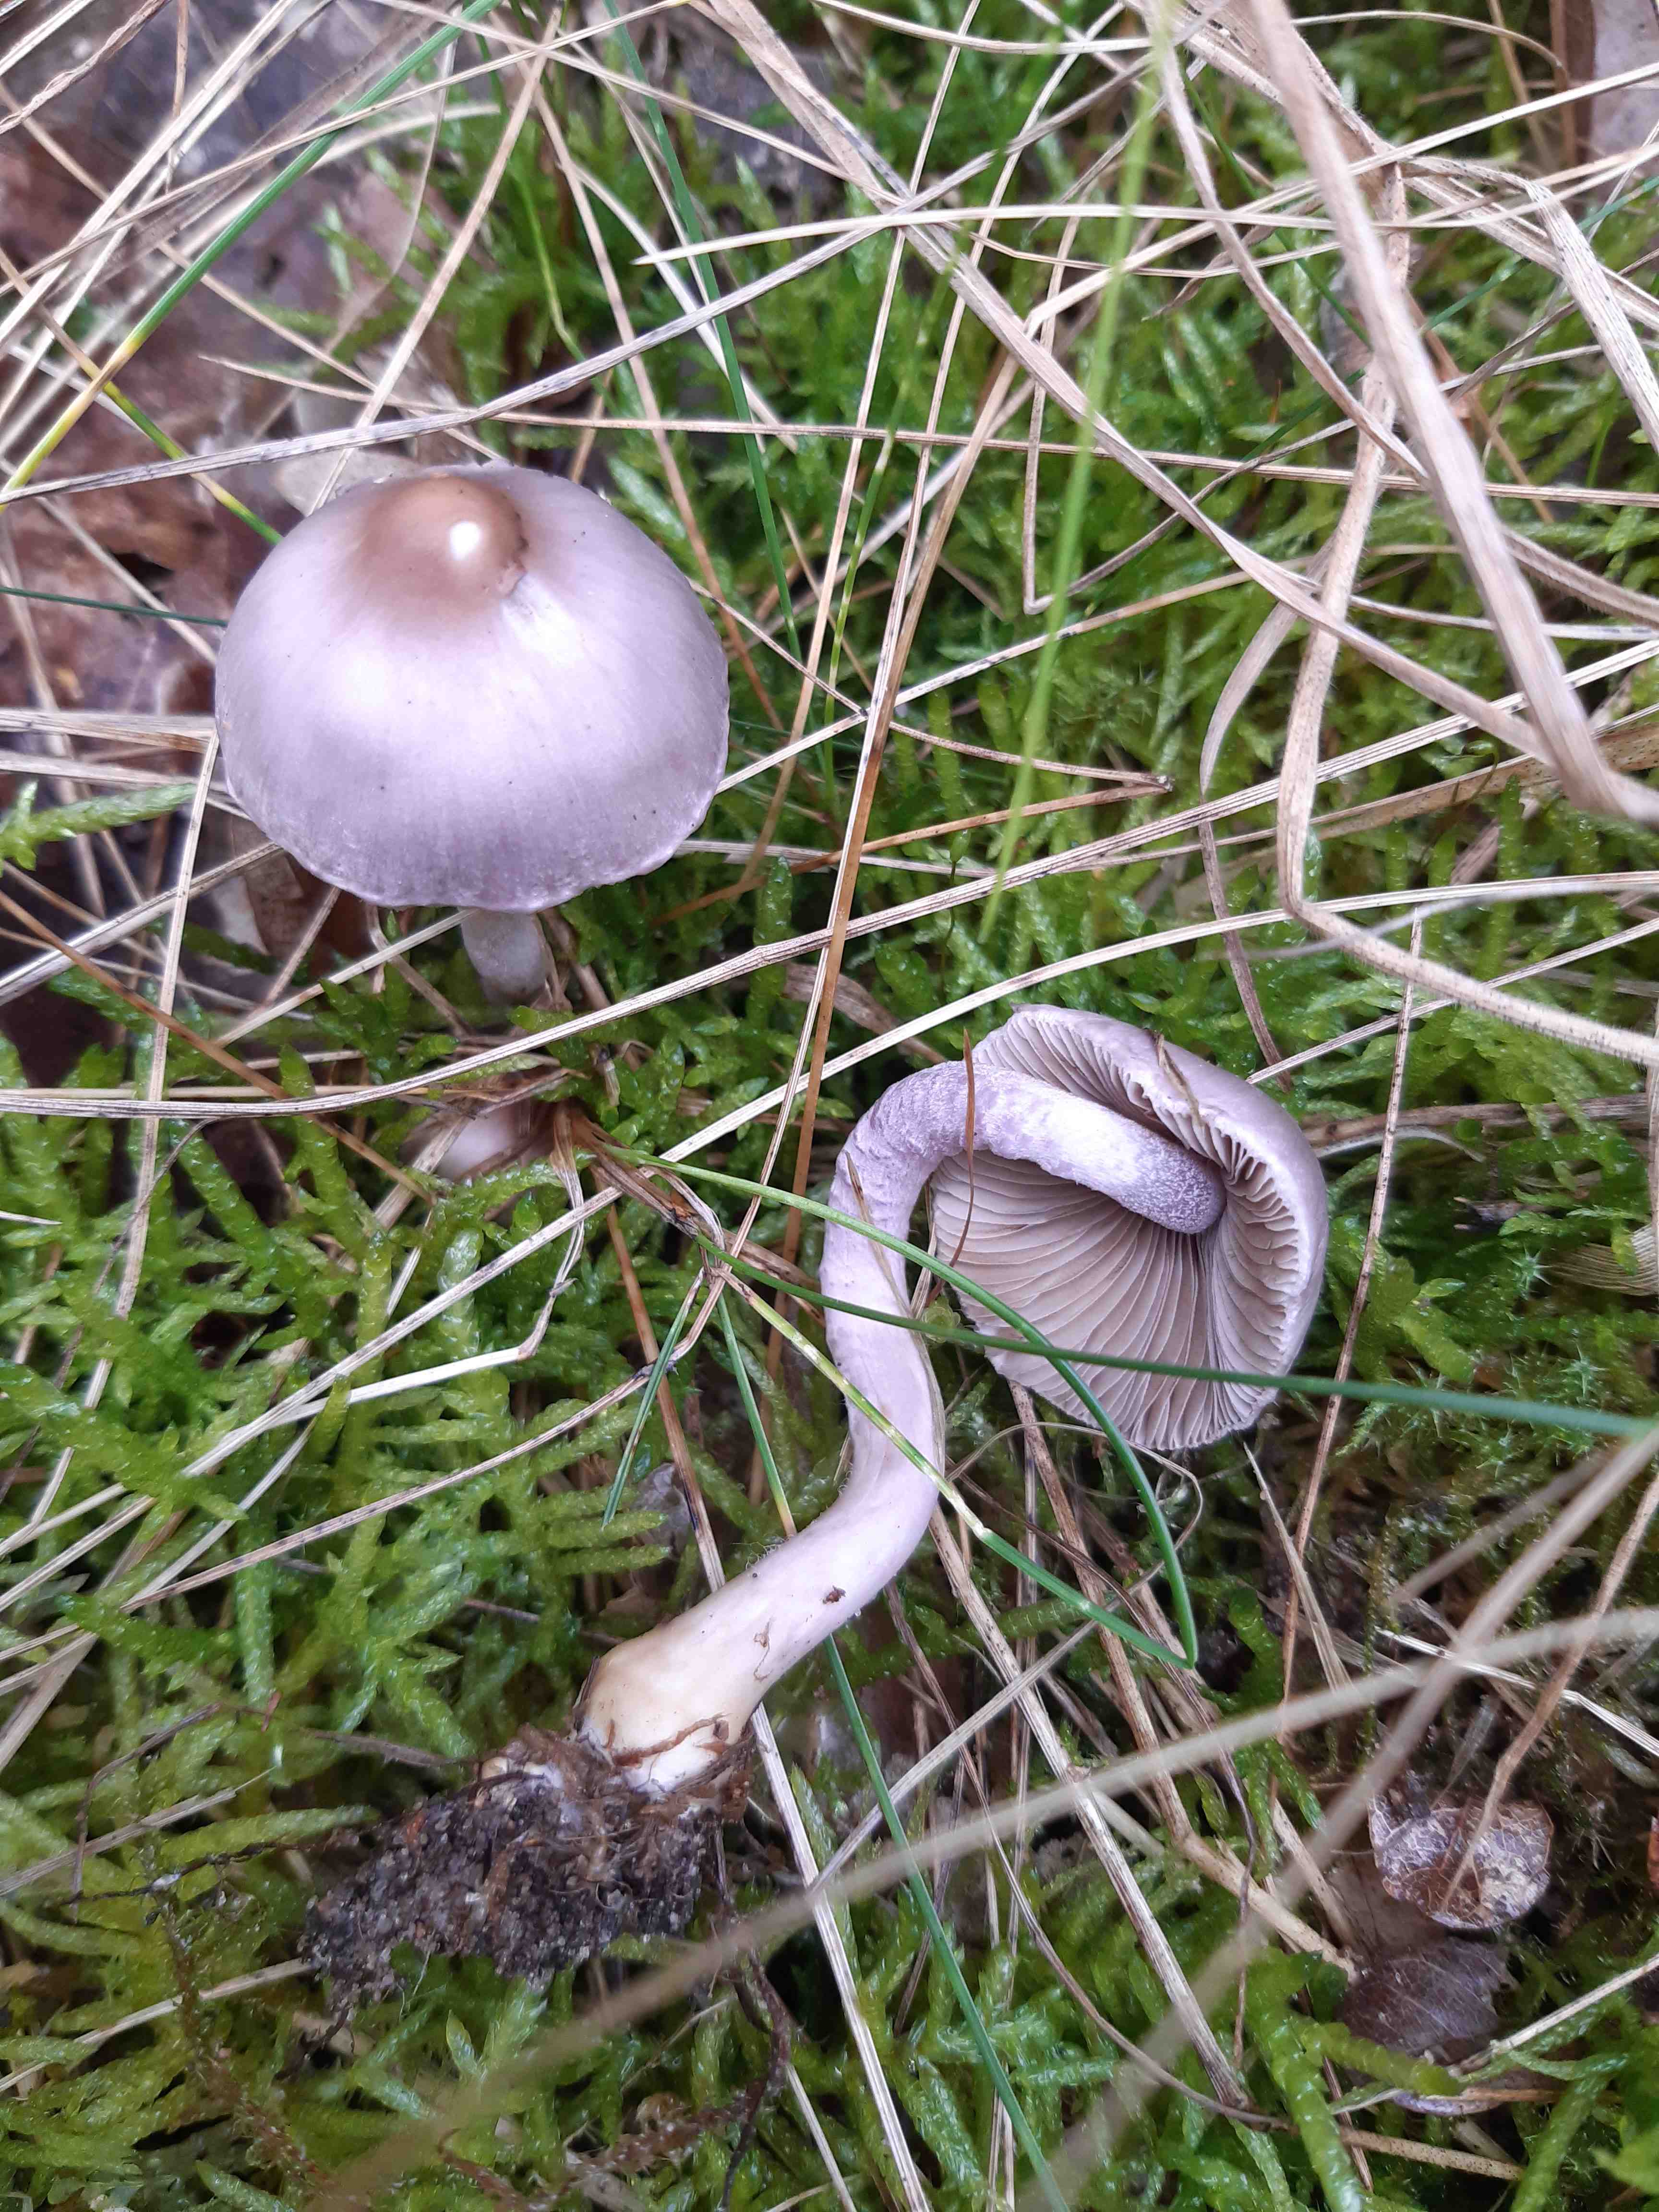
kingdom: Fungi
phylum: Basidiomycota
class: Agaricomycetes
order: Agaricales
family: Inocybaceae
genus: Inocybe
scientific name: Inocybe geophylla
